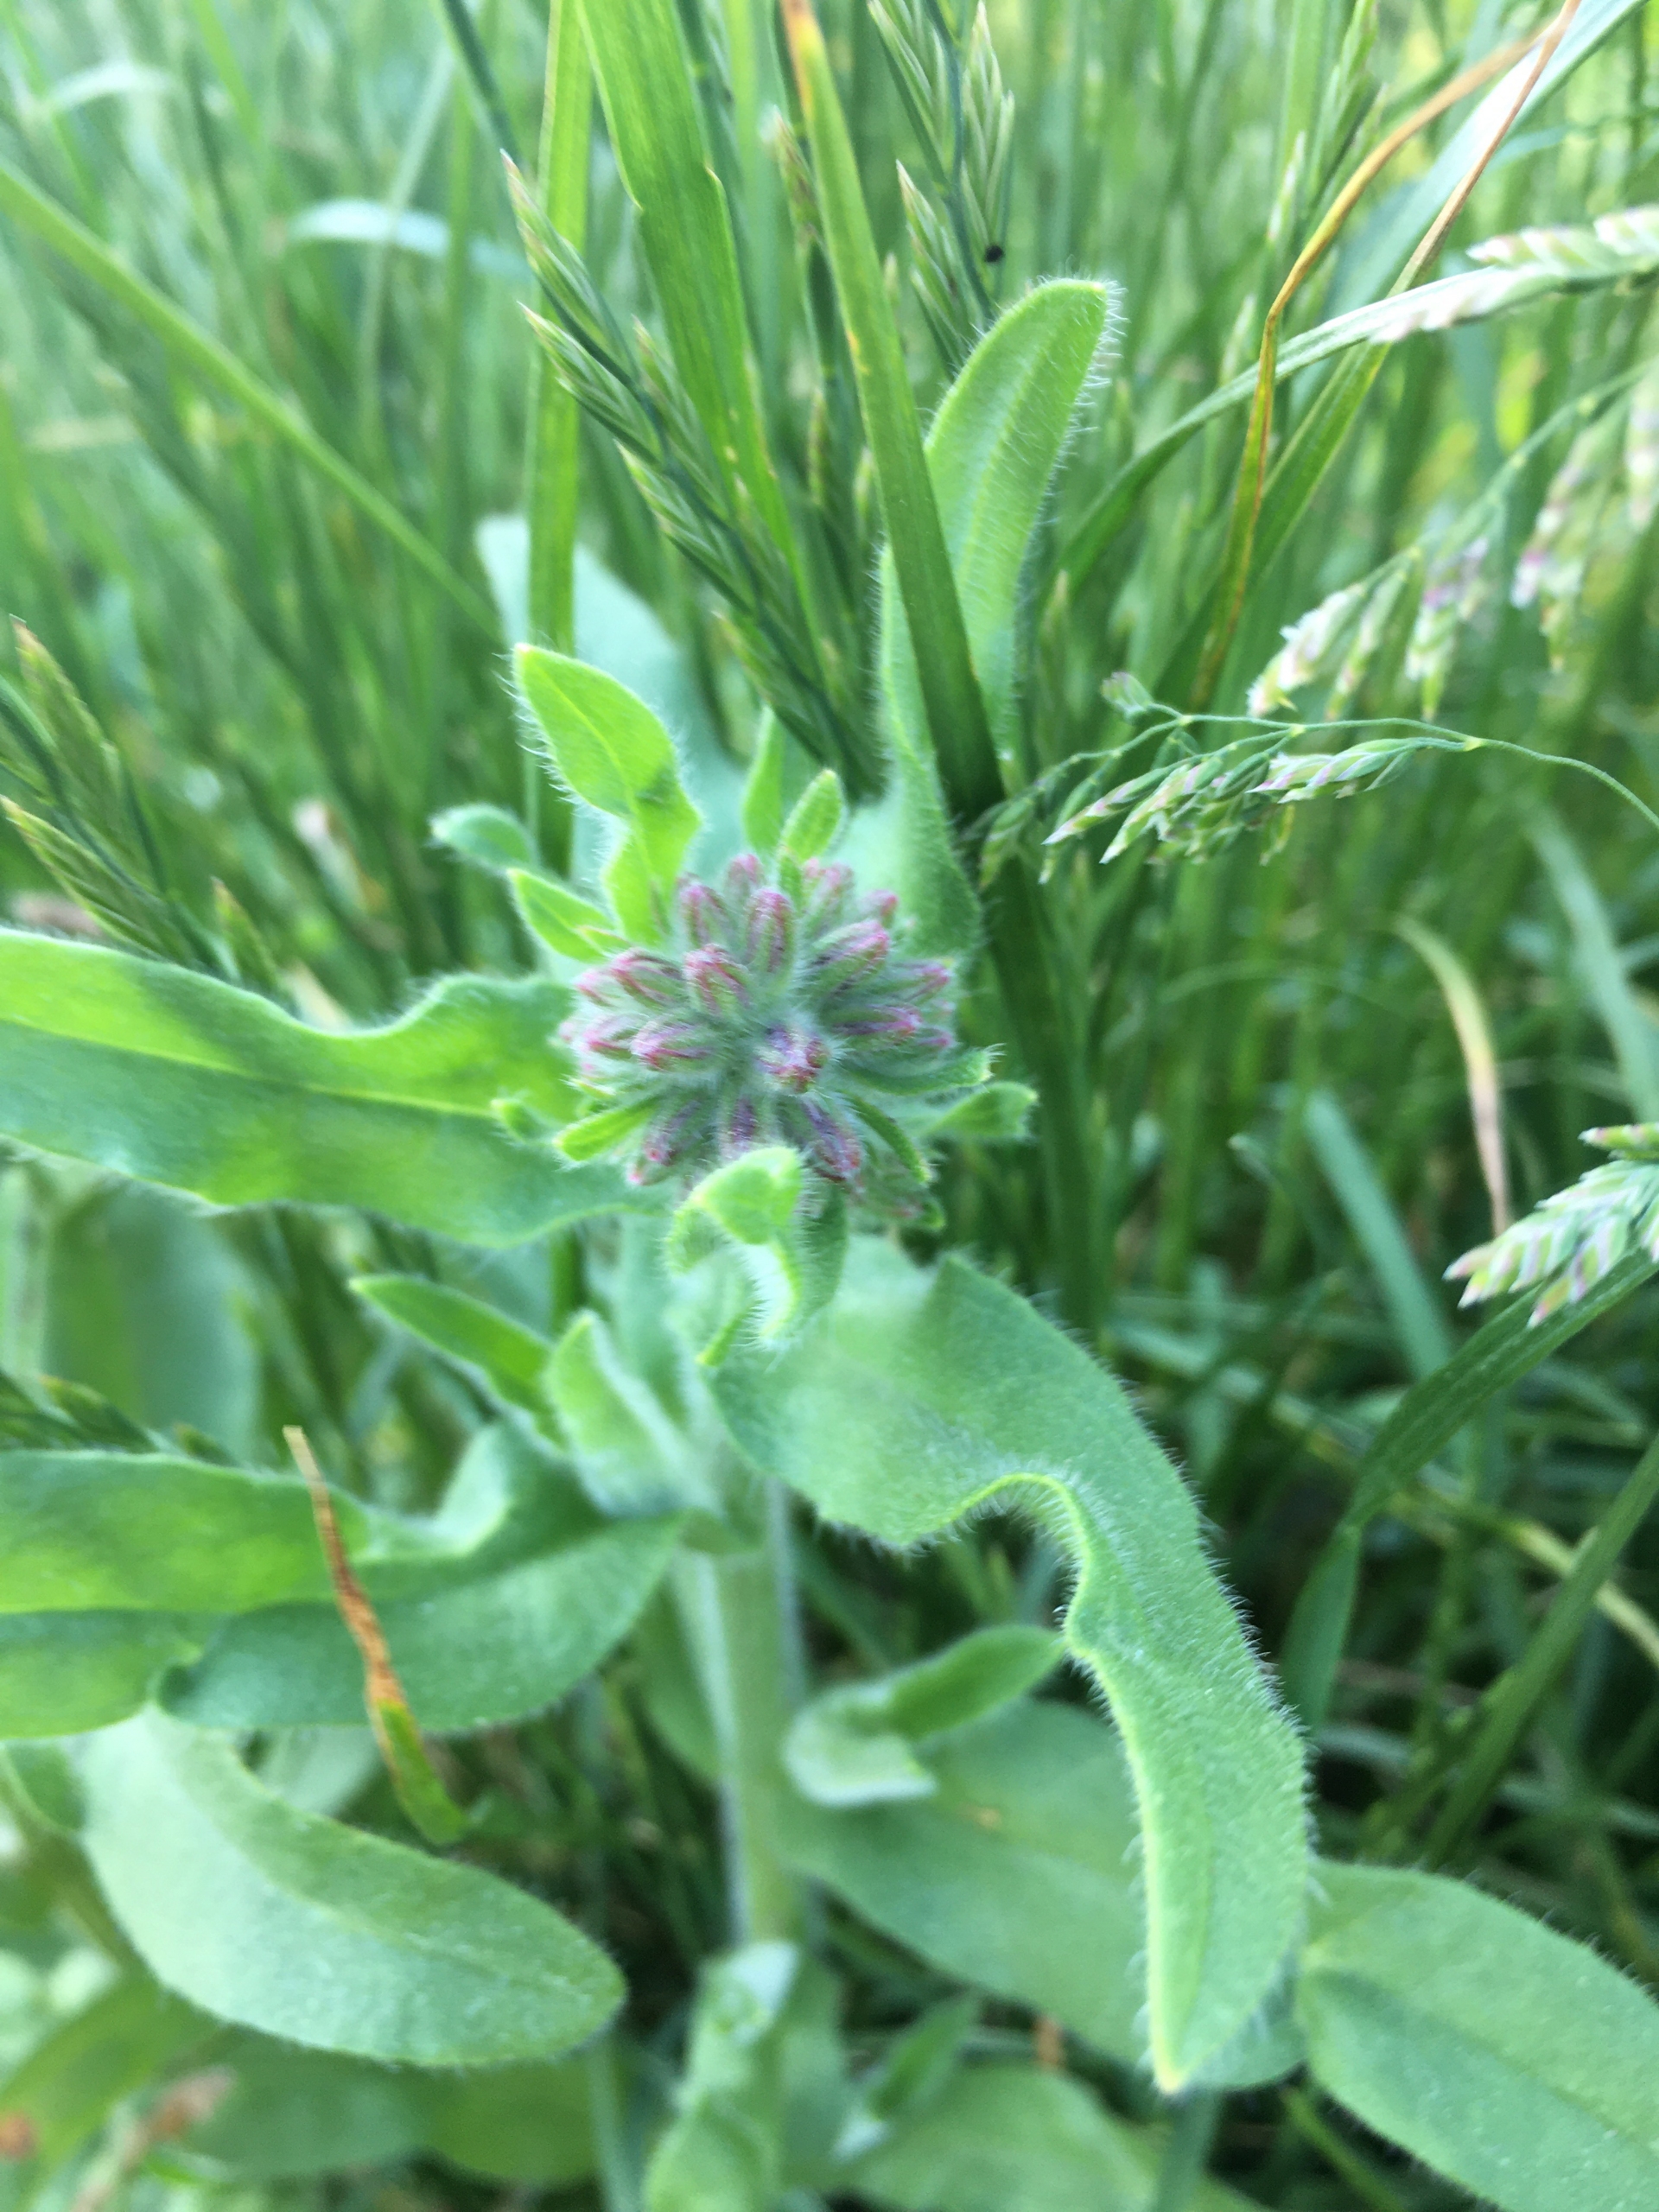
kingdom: Plantae
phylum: Tracheophyta
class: Magnoliopsida
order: Boraginales
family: Boraginaceae
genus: Anchusa
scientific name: Anchusa officinalis
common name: Læge-oksetunge
